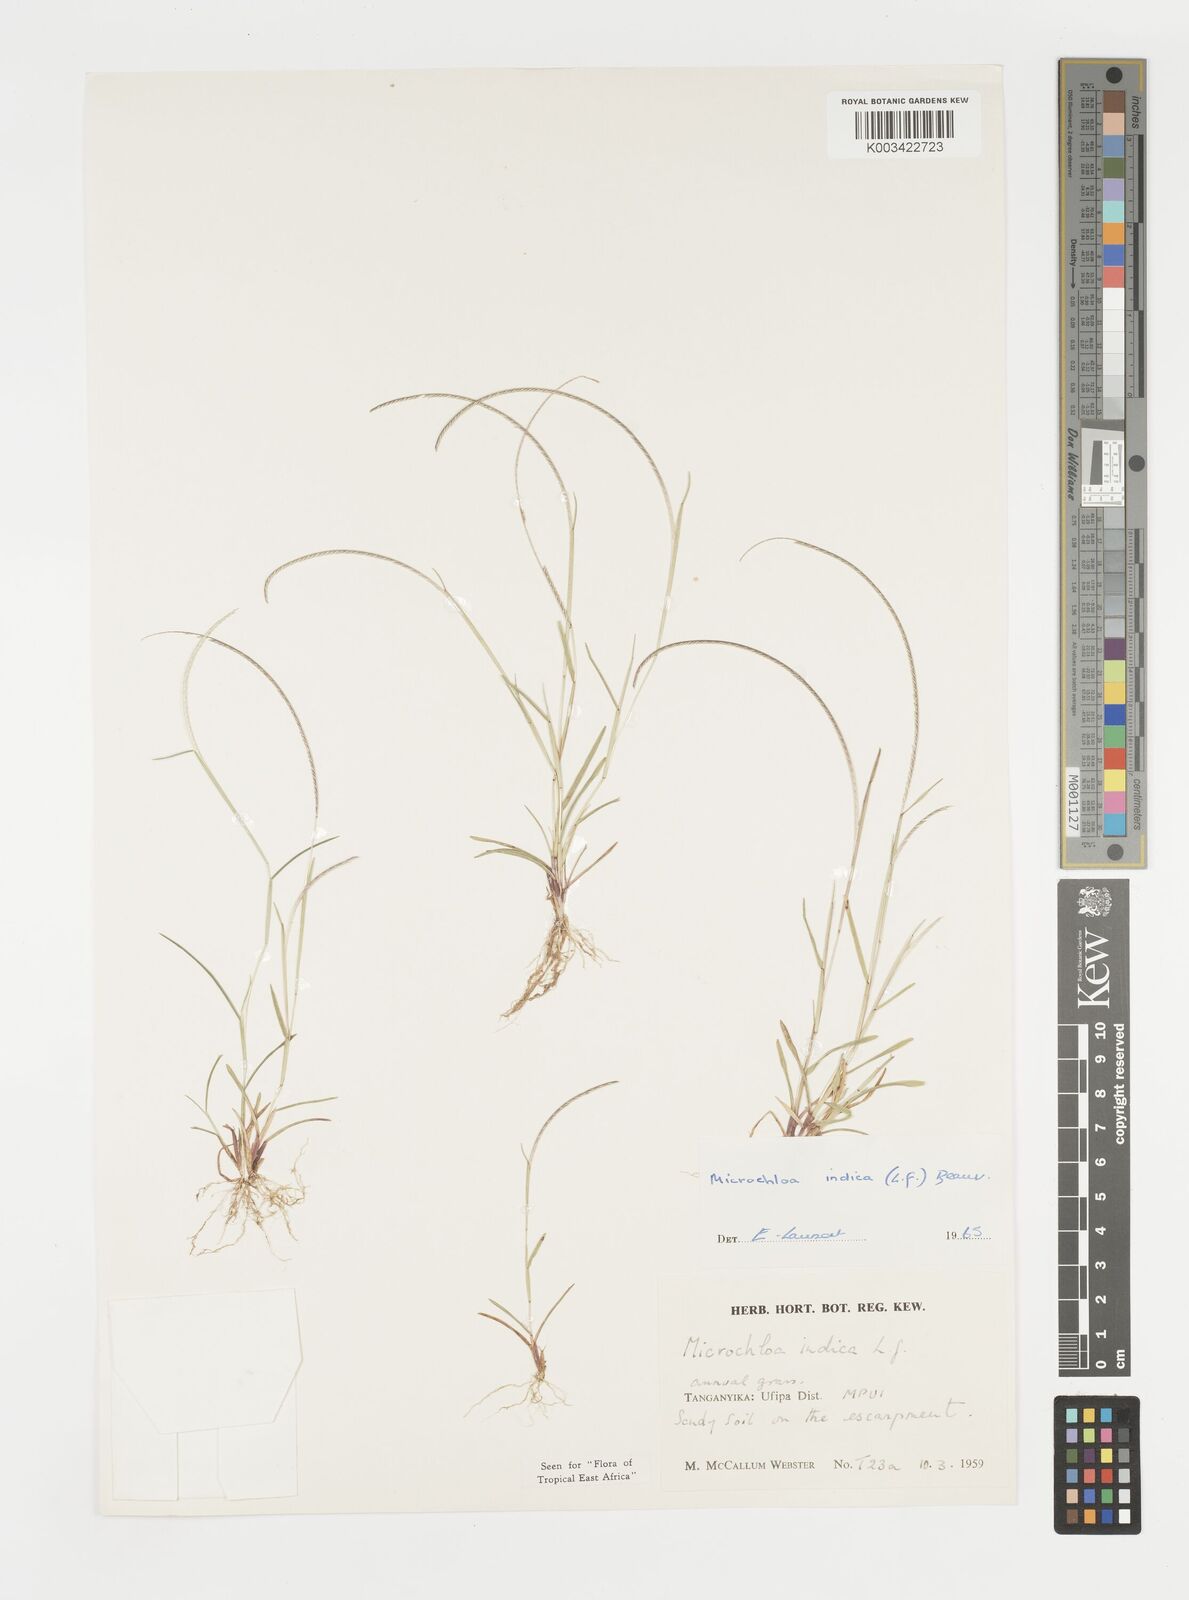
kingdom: Plantae
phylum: Tracheophyta
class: Liliopsida
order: Poales
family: Poaceae
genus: Microchloa
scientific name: Microchloa indica
